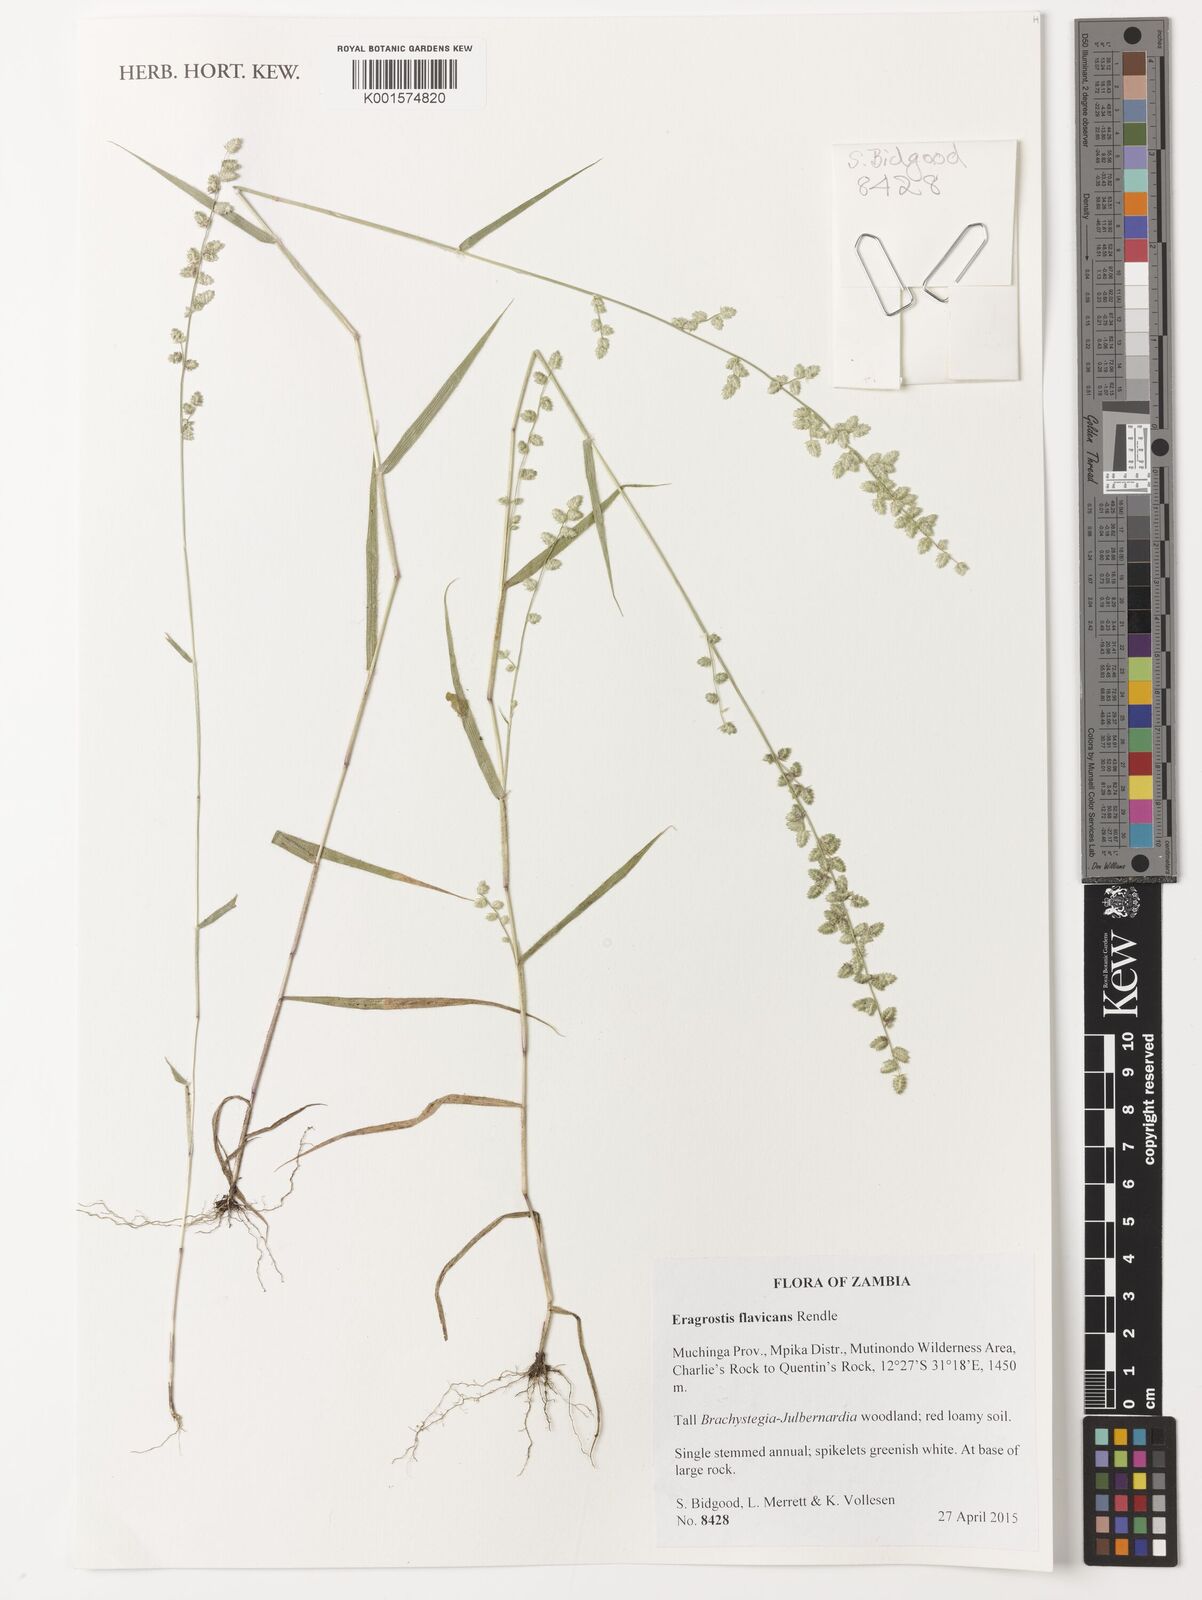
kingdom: Plantae
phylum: Tracheophyta
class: Liliopsida
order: Poales
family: Poaceae
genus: Eragrostis
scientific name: Eragrostis flavicans
